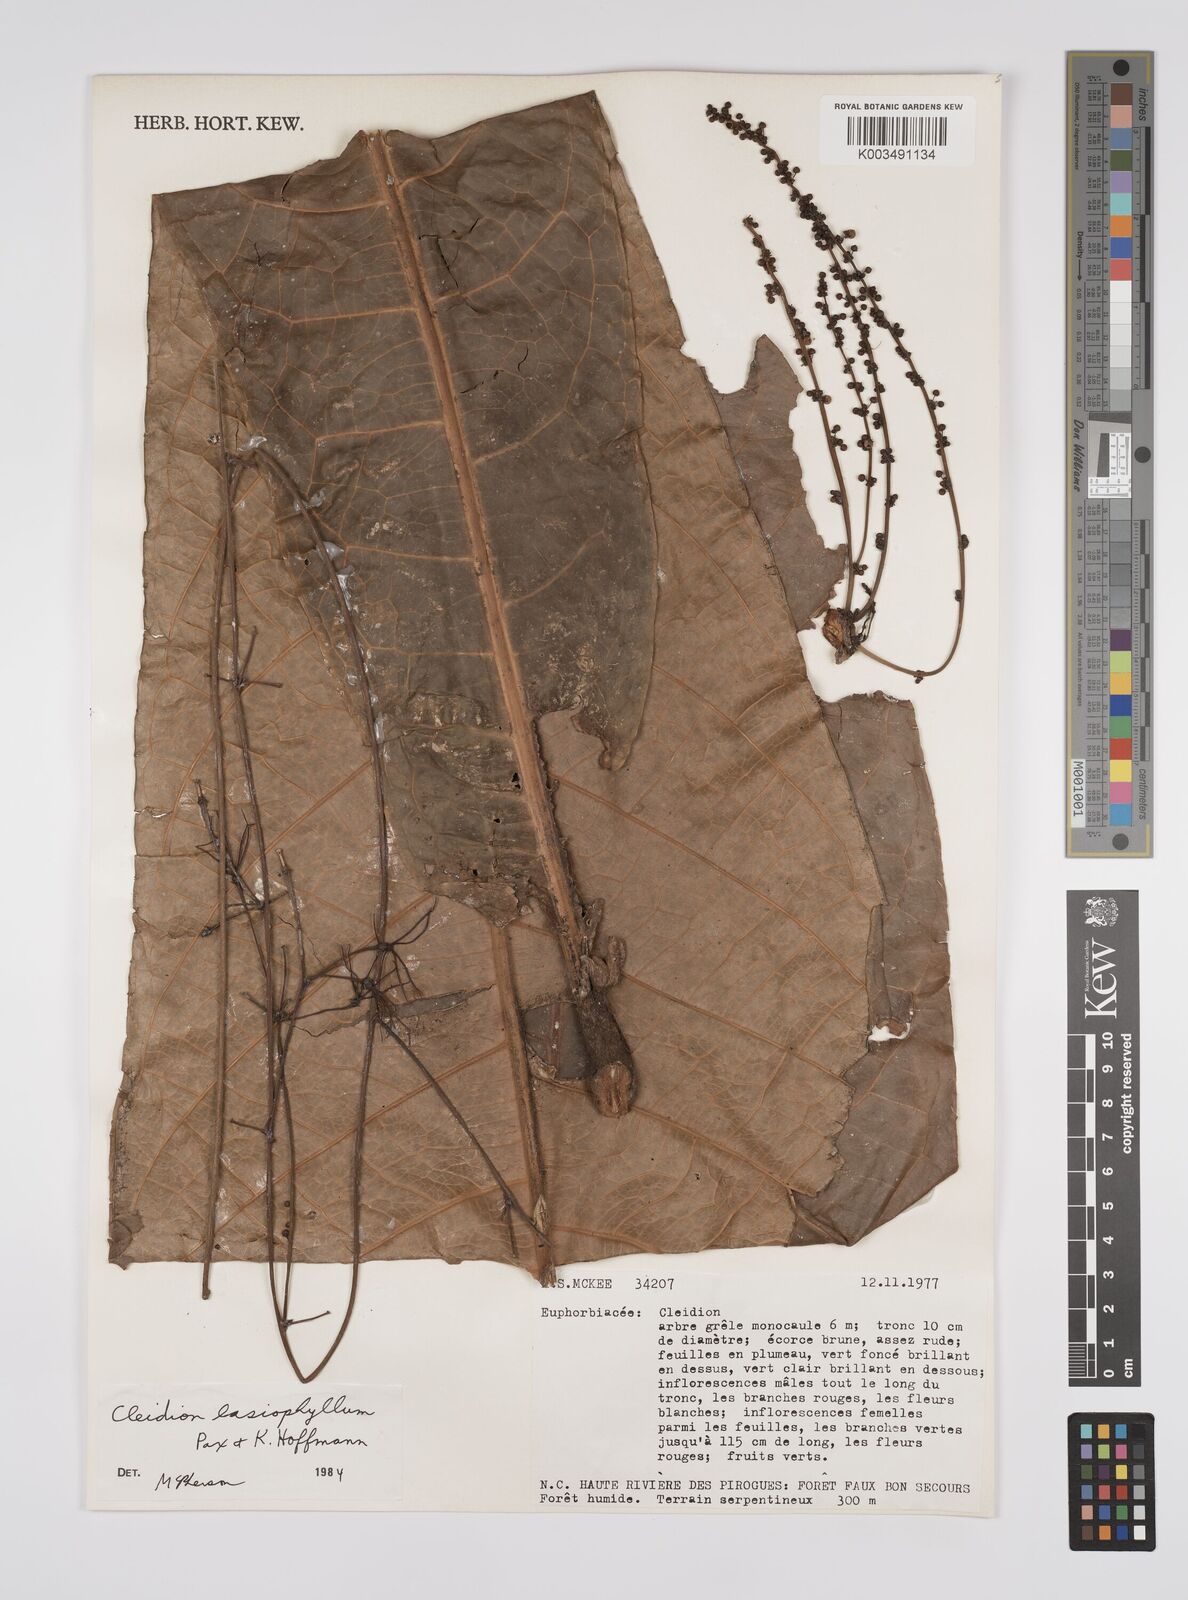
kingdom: Plantae
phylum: Tracheophyta
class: Magnoliopsida
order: Malpighiales
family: Euphorbiaceae
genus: Cleidion
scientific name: Cleidion lasiophyllum
